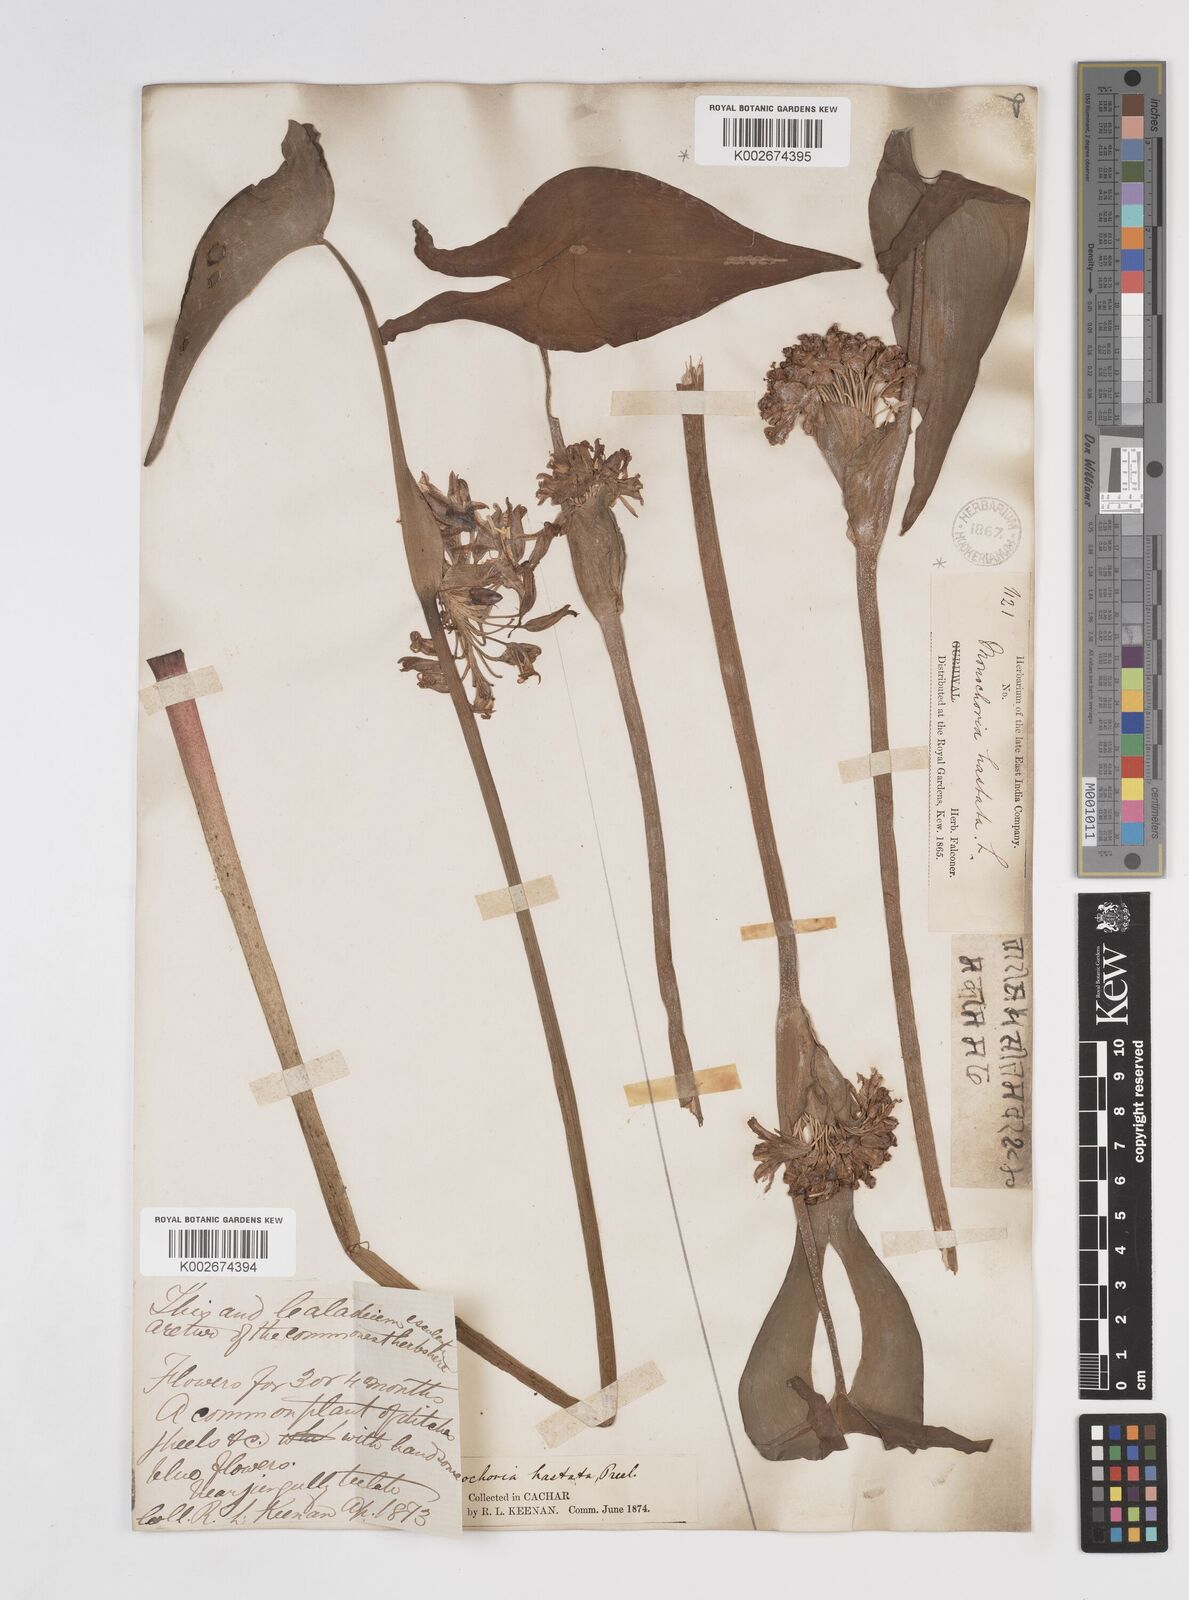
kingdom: Plantae
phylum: Tracheophyta
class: Liliopsida
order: Commelinales
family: Pontederiaceae
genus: Pontederia
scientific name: Pontederia hastata
